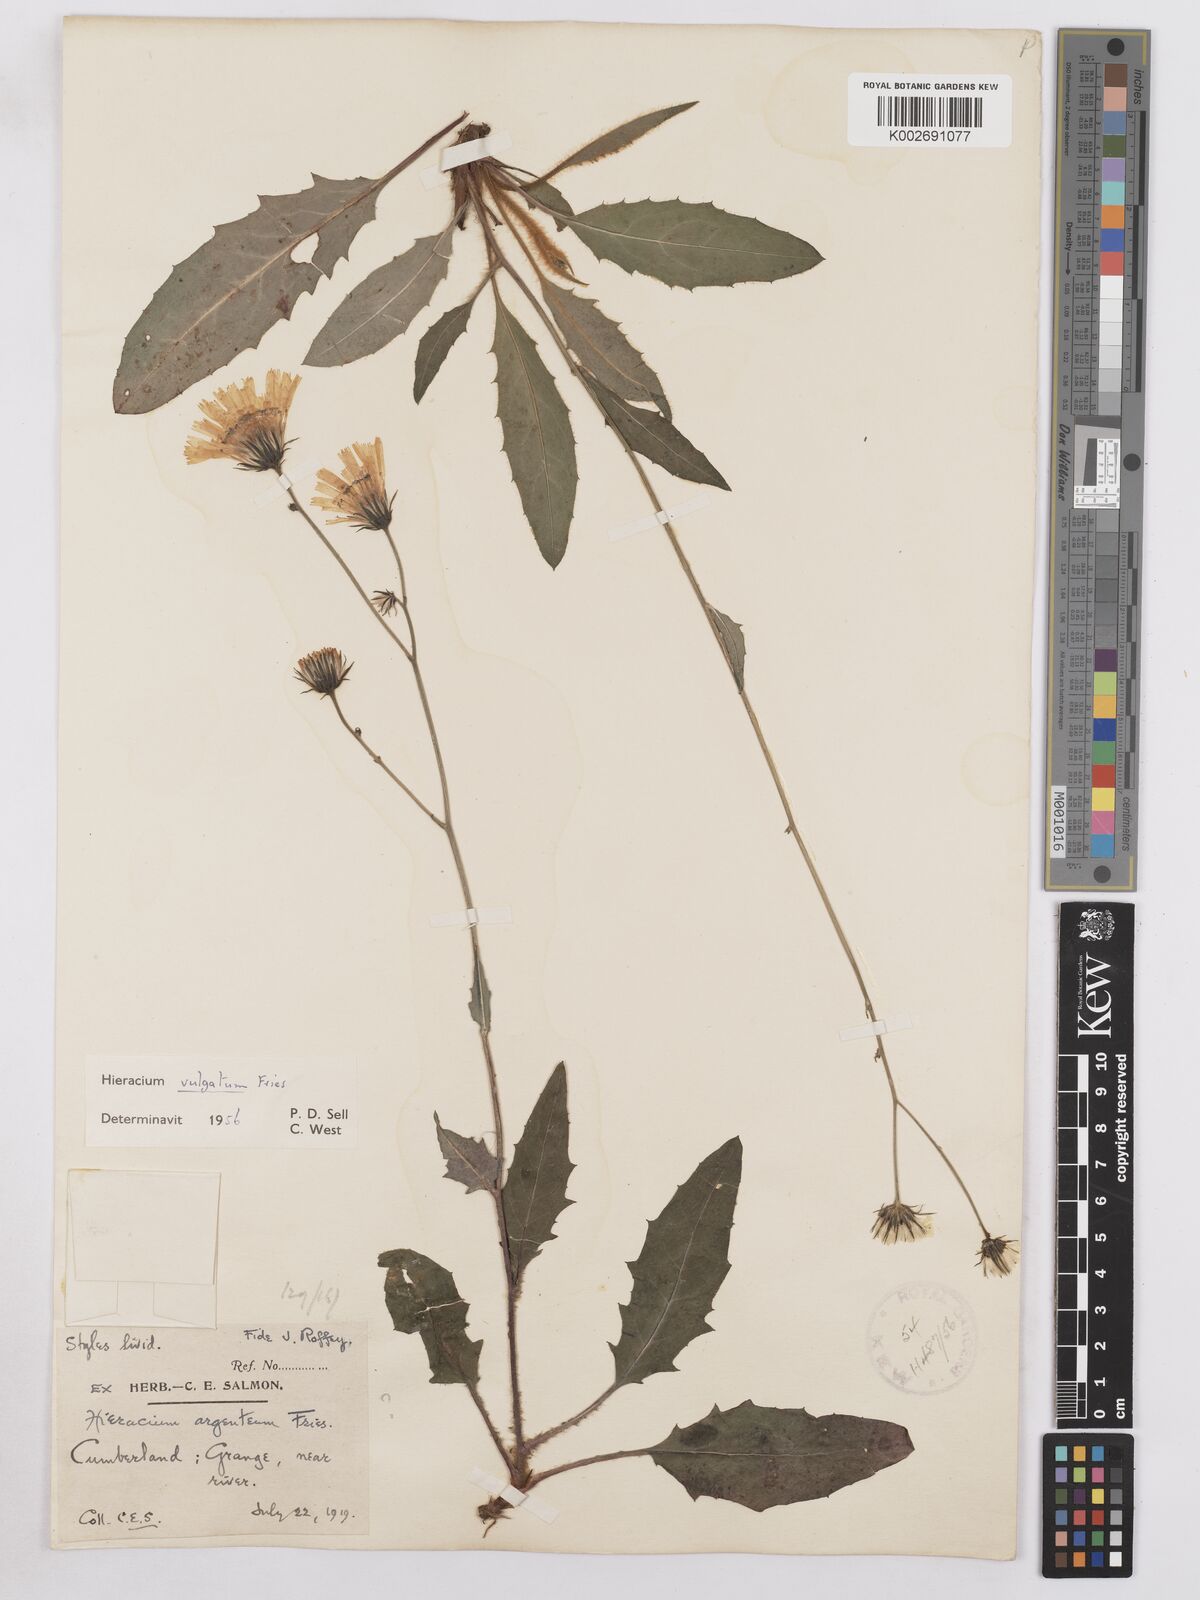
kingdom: Plantae
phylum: Tracheophyta
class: Magnoliopsida
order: Asterales
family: Asteraceae
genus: Hieracium
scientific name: Hieracium lachenalii
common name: Common hawkweed
